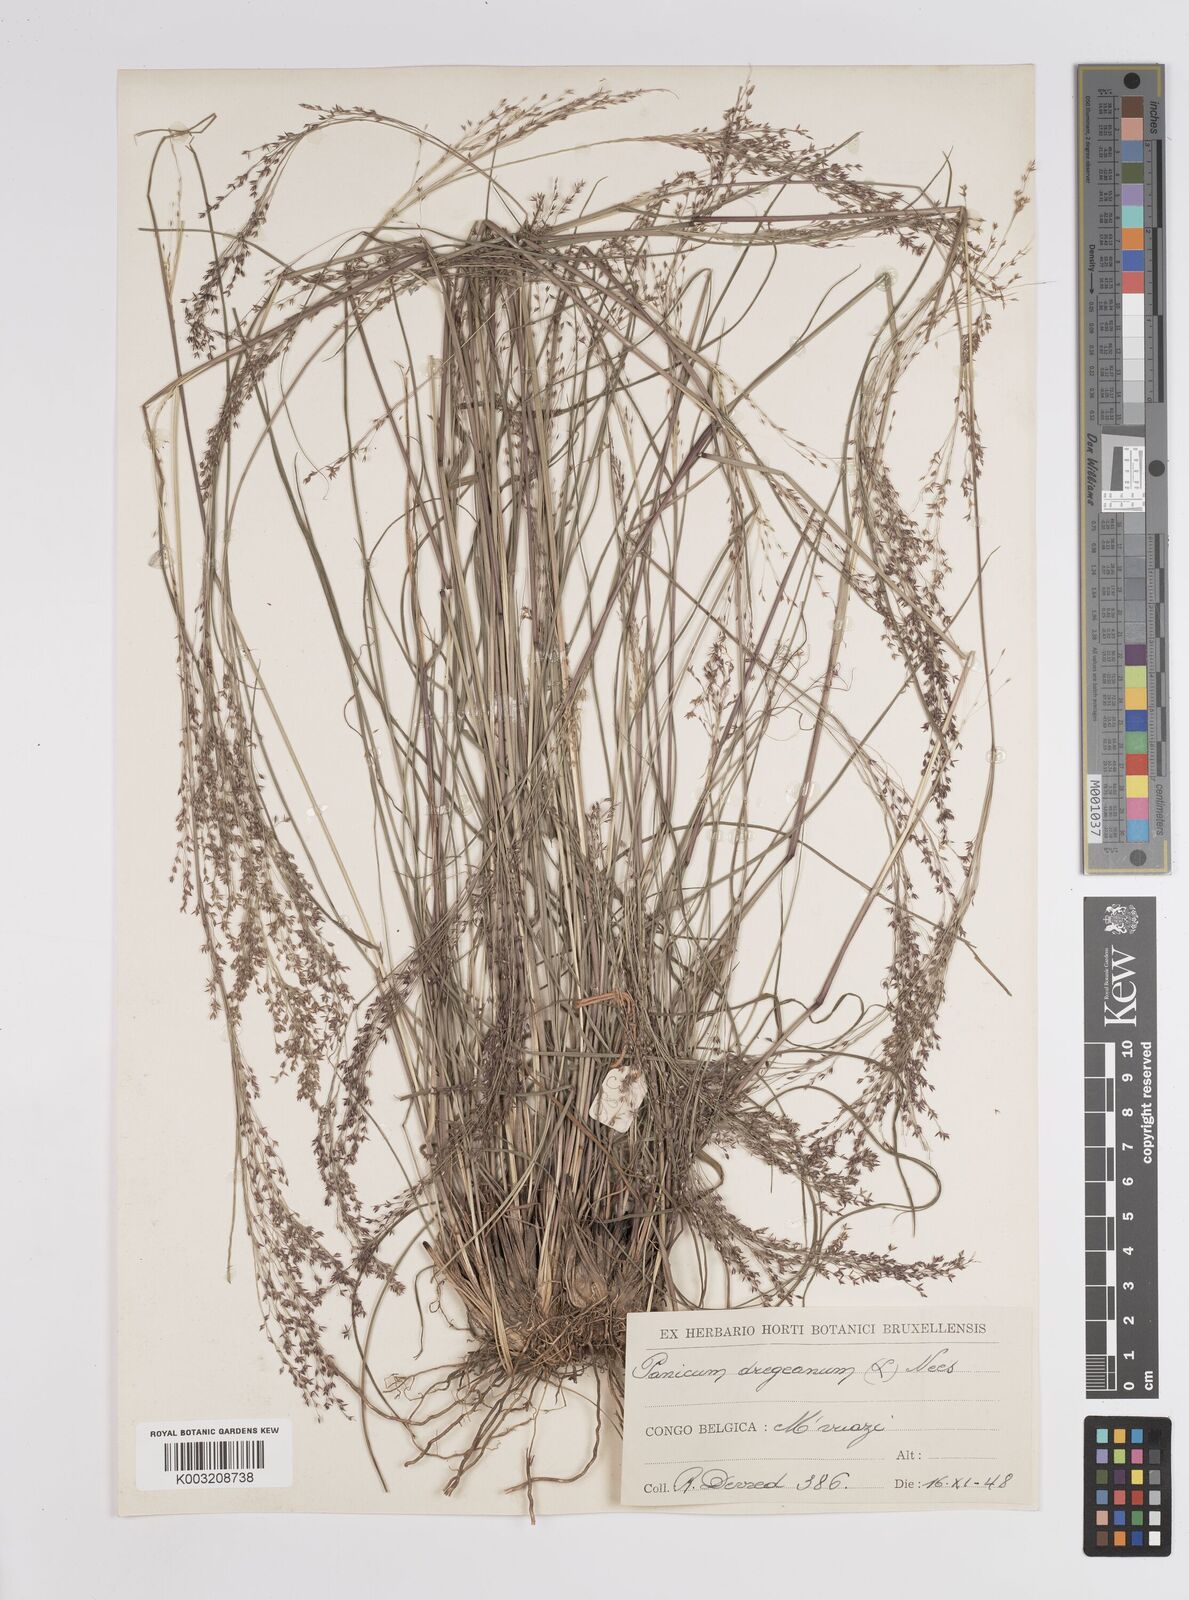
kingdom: Plantae
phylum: Tracheophyta
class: Liliopsida
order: Poales
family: Poaceae
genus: Panicum
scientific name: Panicum dregeanum
